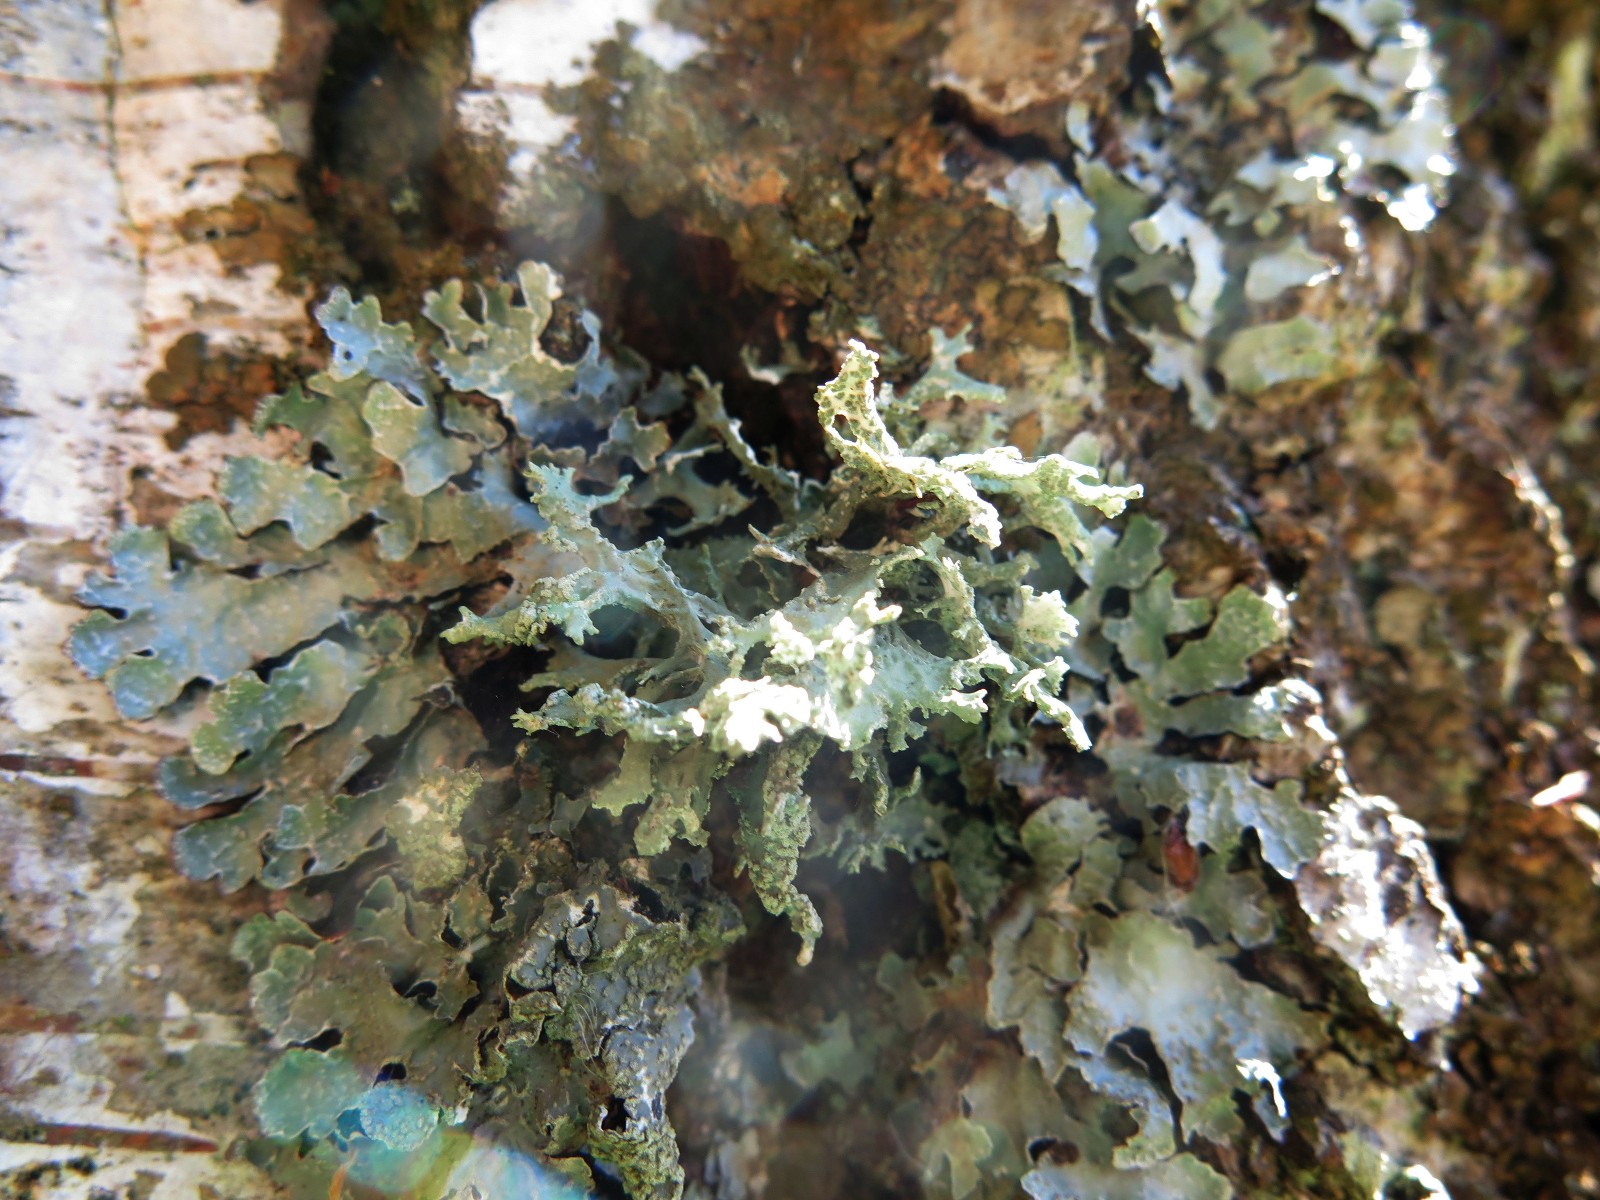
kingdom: Fungi
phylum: Ascomycota
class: Lecanoromycetes
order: Lecanorales
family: Parmeliaceae
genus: Evernia
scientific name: Evernia prunastri
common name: almindelig slåenlav
